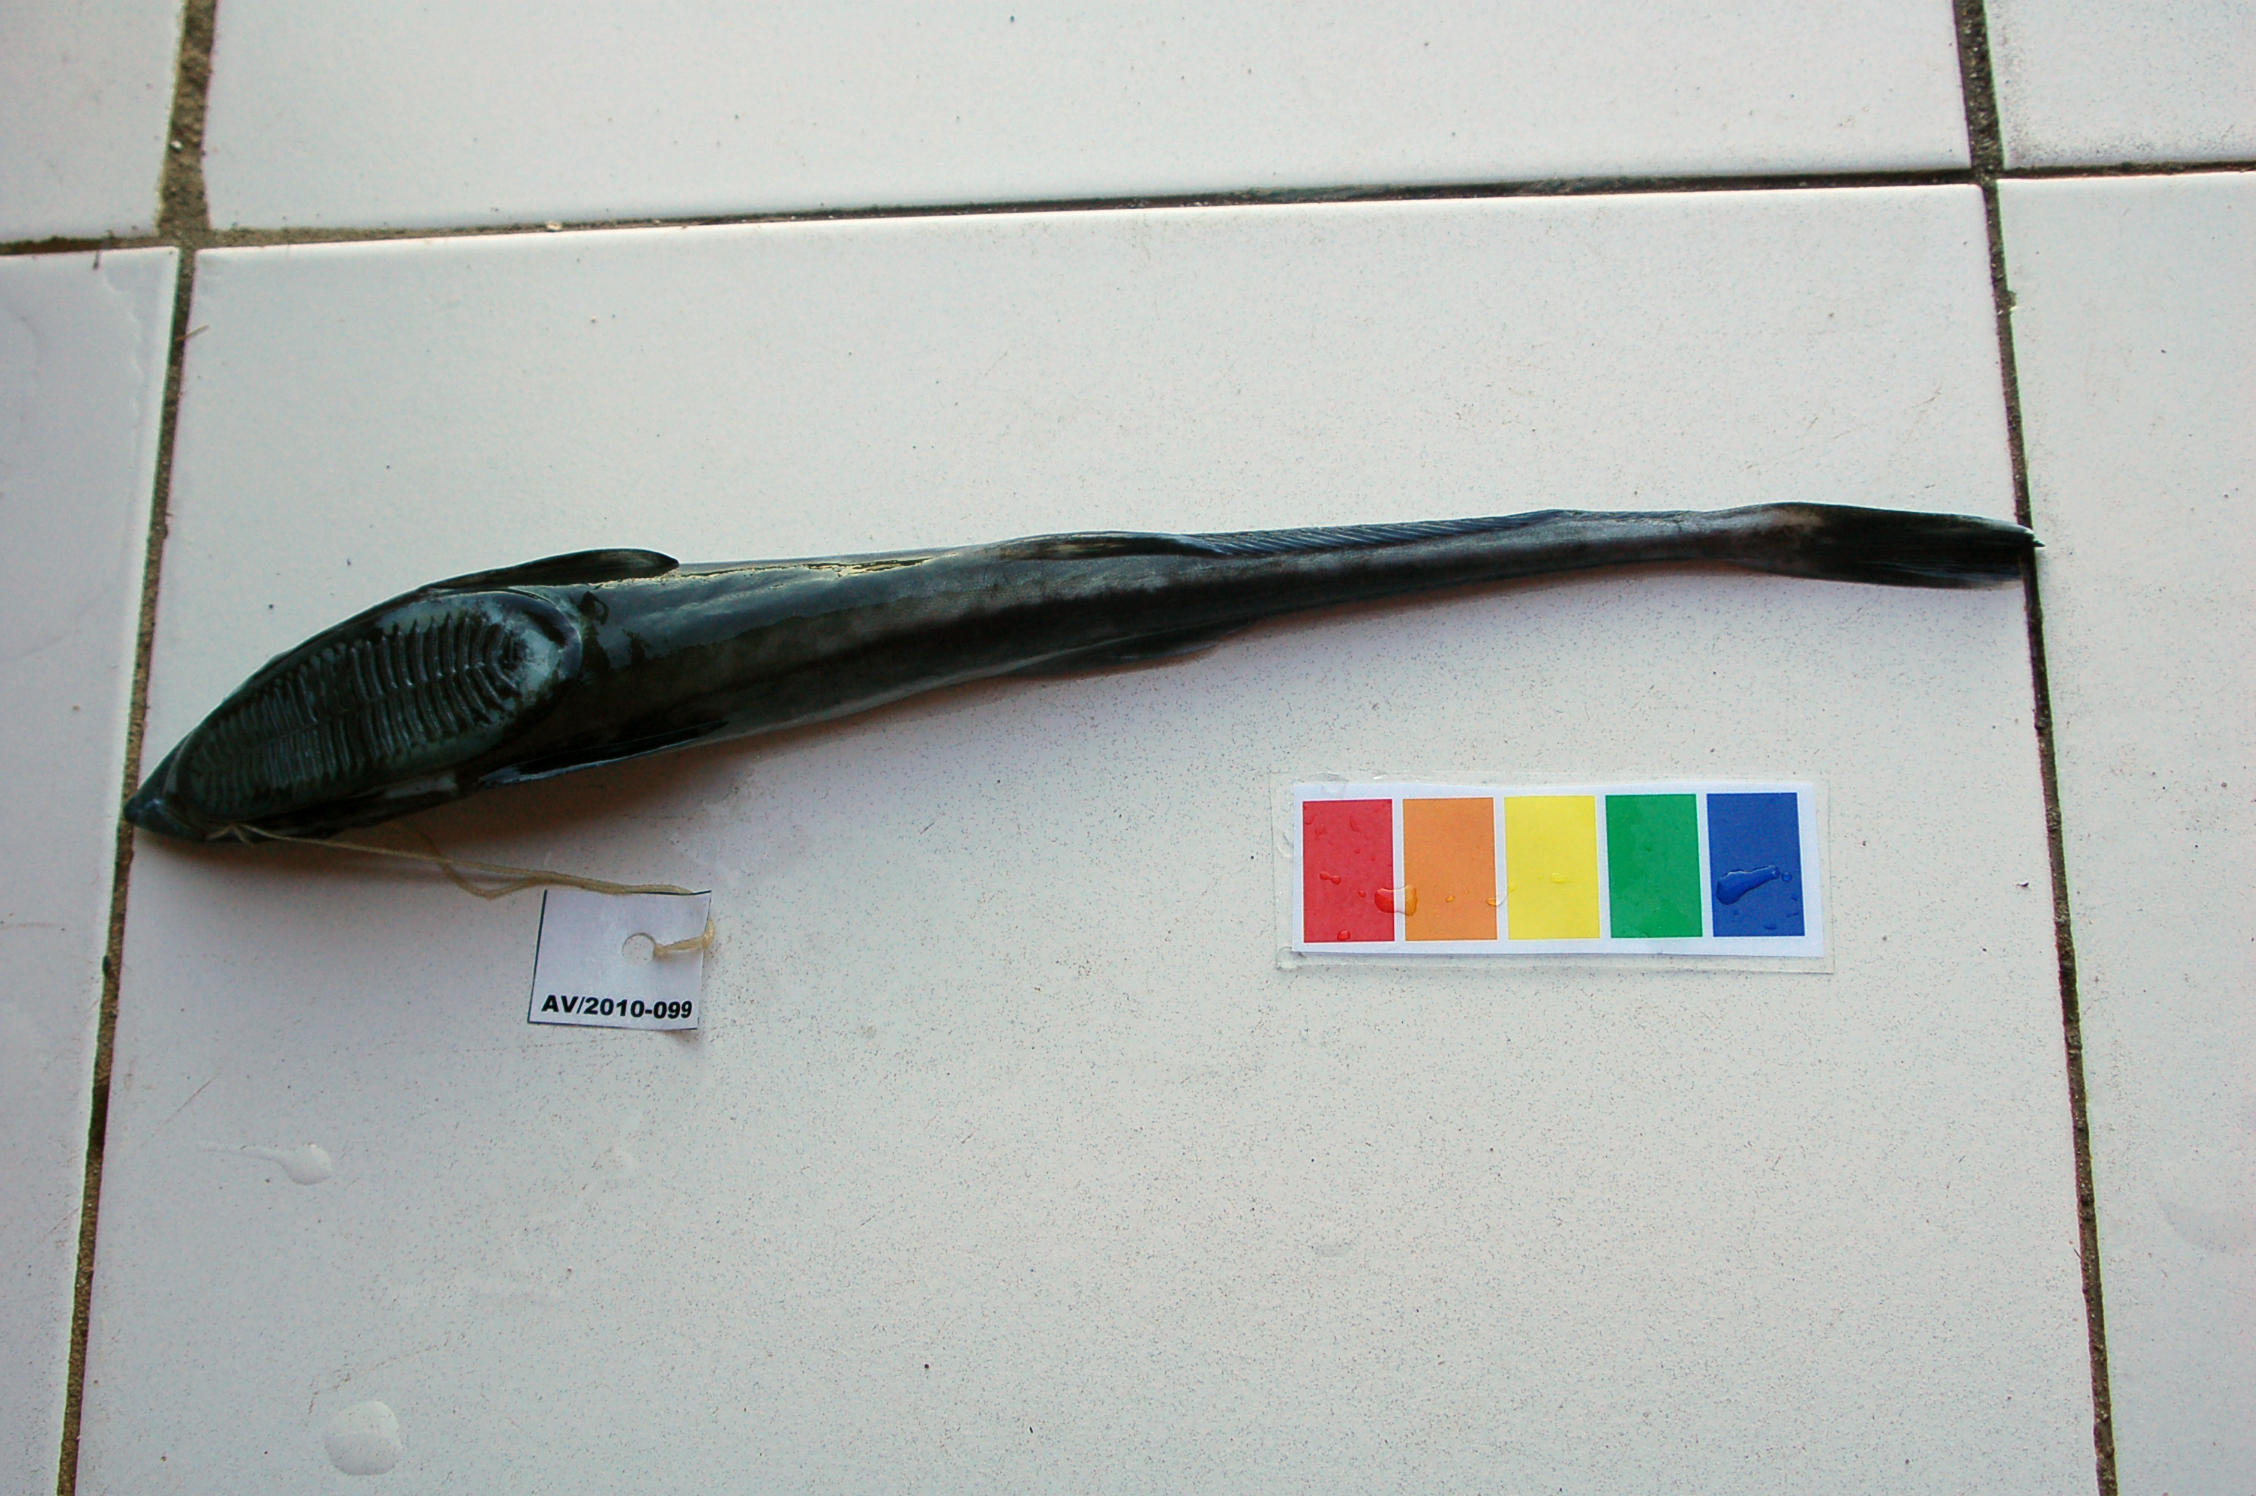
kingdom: Animalia
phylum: Chordata
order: Perciformes
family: Echeneidae
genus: Echeneis
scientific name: Echeneis naucrates
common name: Sharksucker
